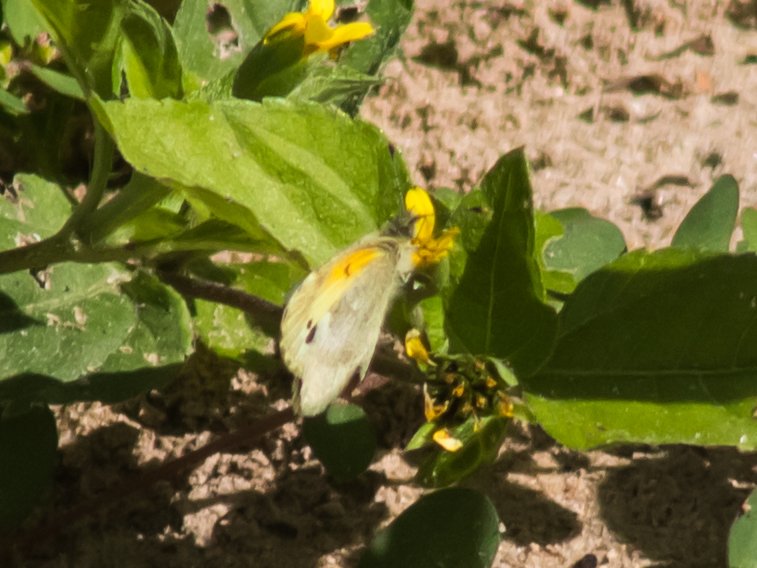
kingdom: Animalia
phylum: Arthropoda
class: Insecta
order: Lepidoptera
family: Pieridae
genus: Nathalis
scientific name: Nathalis iole
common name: Dainty Sulphur
